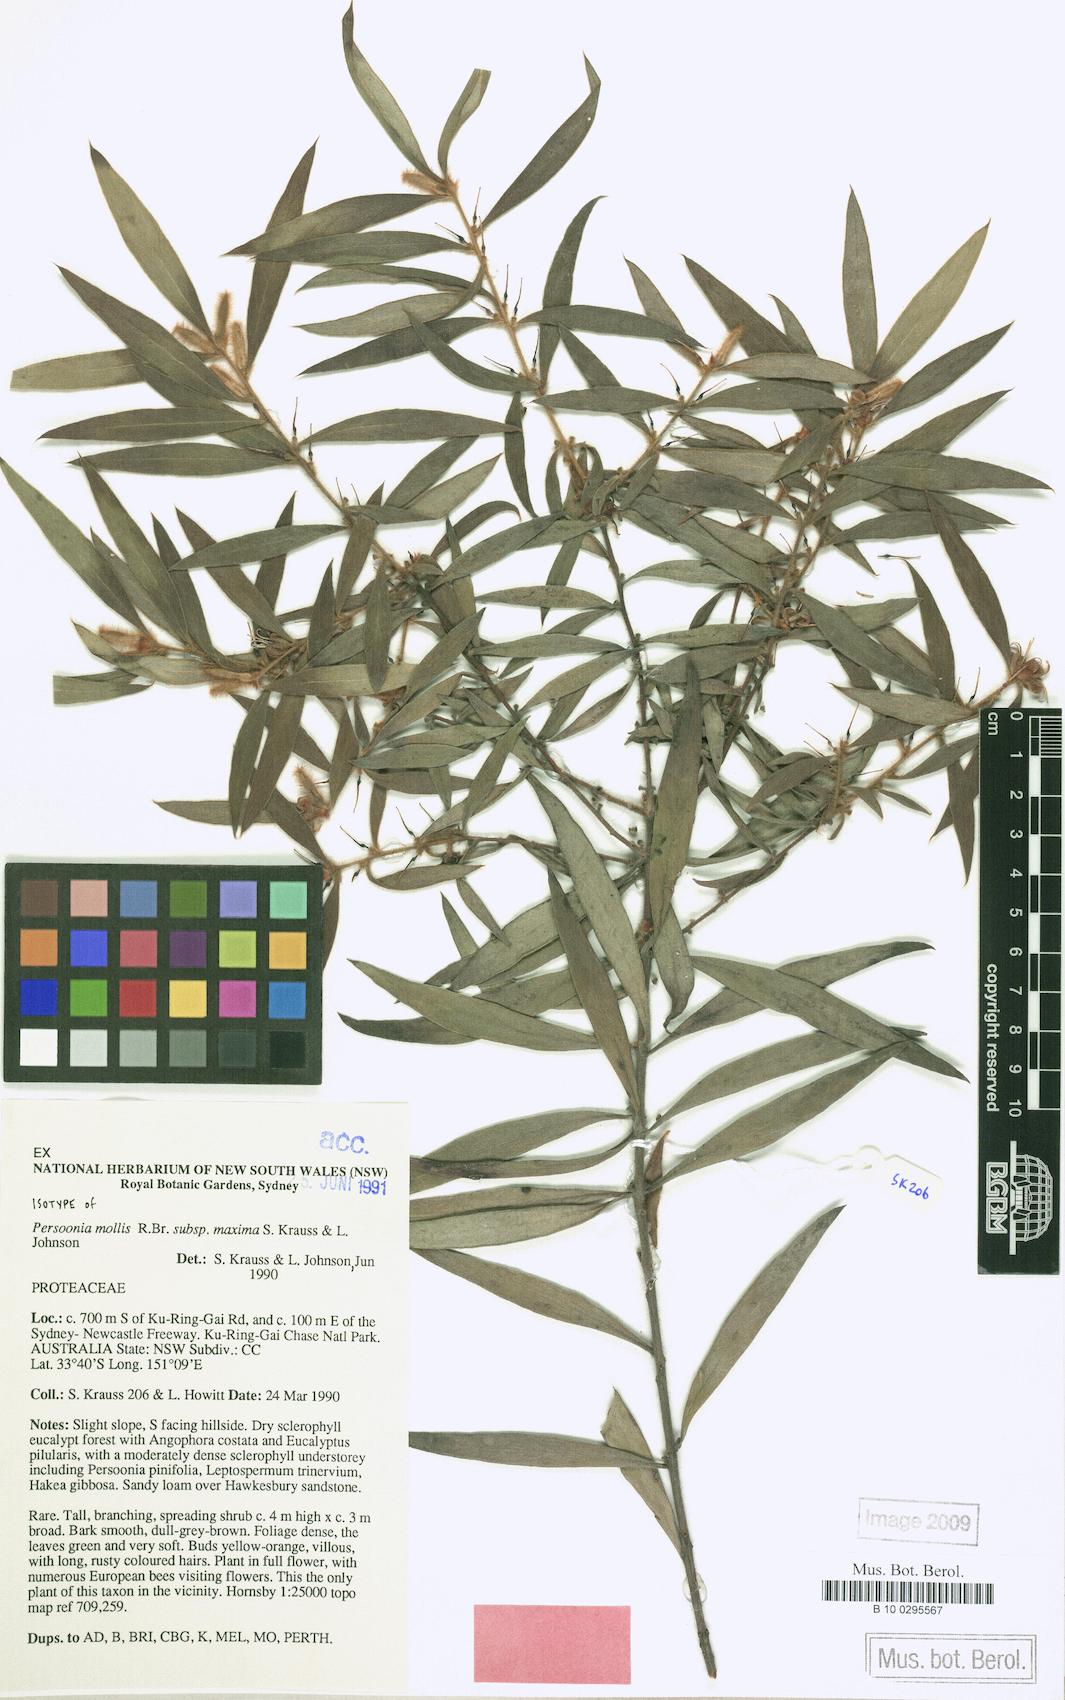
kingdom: Plantae
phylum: Tracheophyta
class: Magnoliopsida
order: Proteales
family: Proteaceae
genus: Persoonia
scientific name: Persoonia mollis
